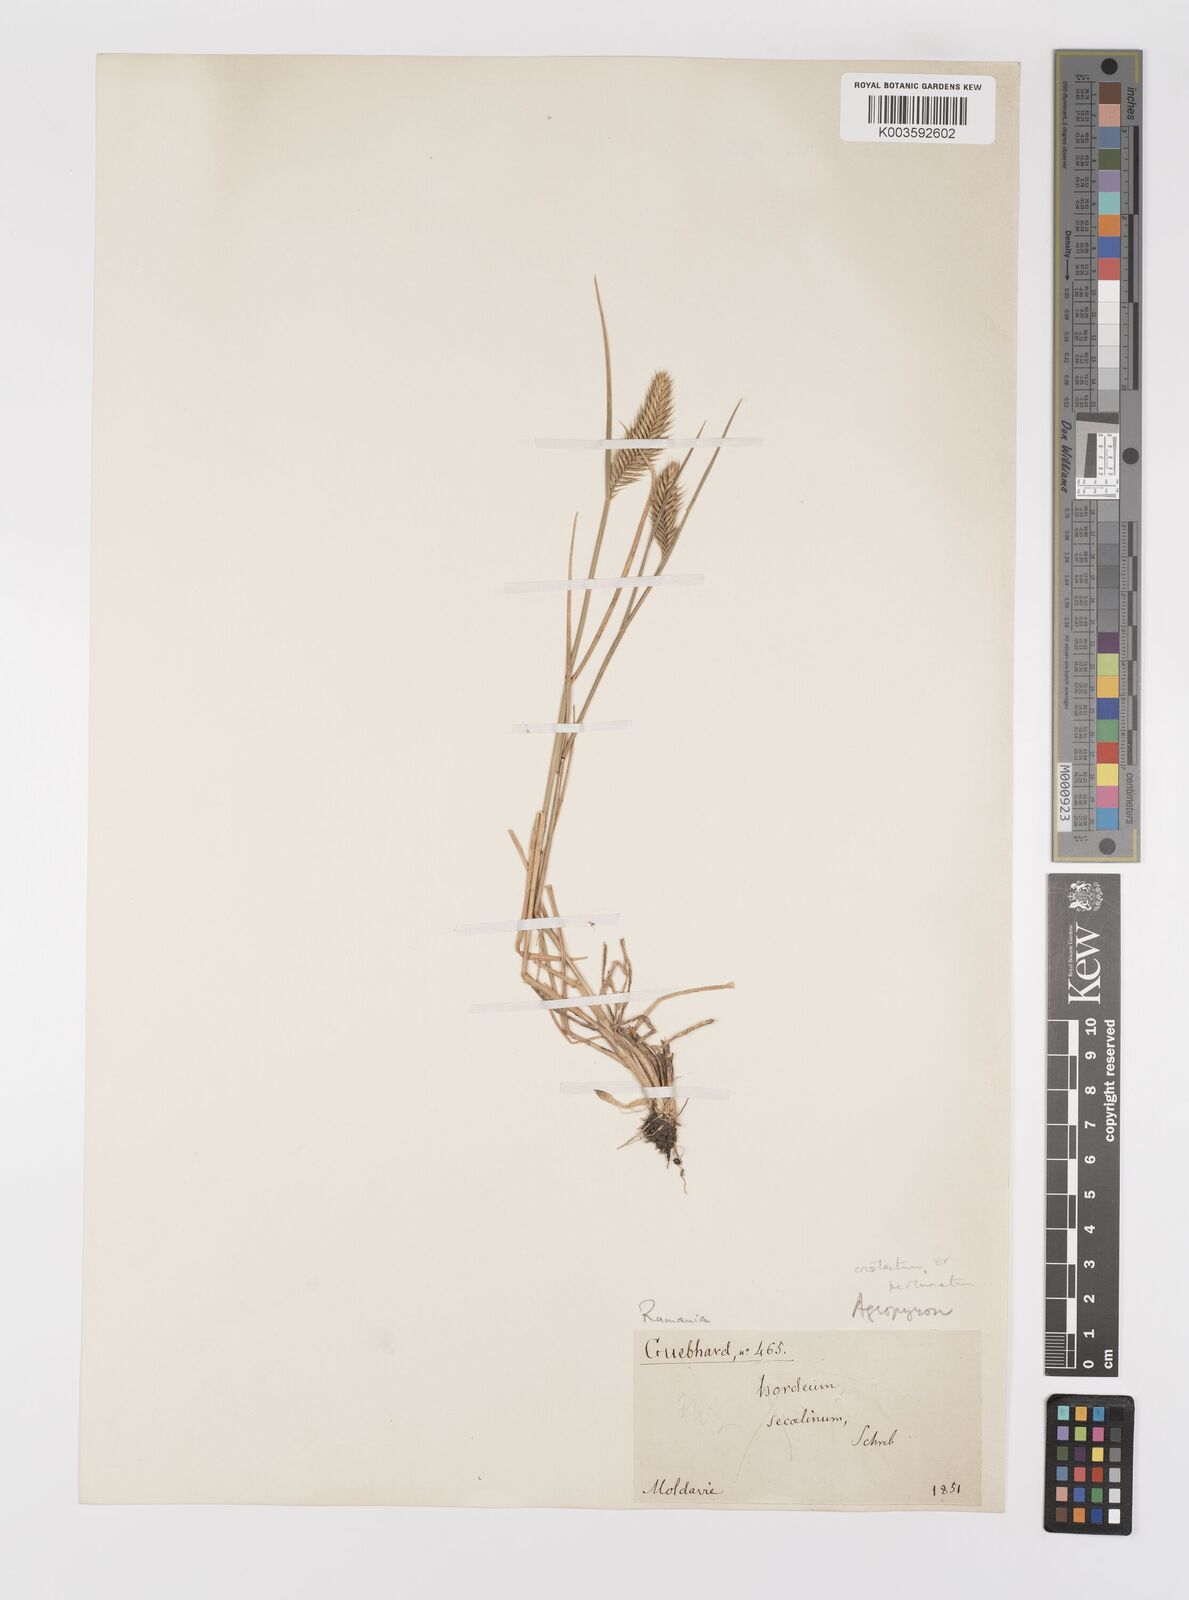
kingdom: Plantae
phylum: Tracheophyta
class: Liliopsida
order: Poales
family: Poaceae
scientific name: Poaceae
